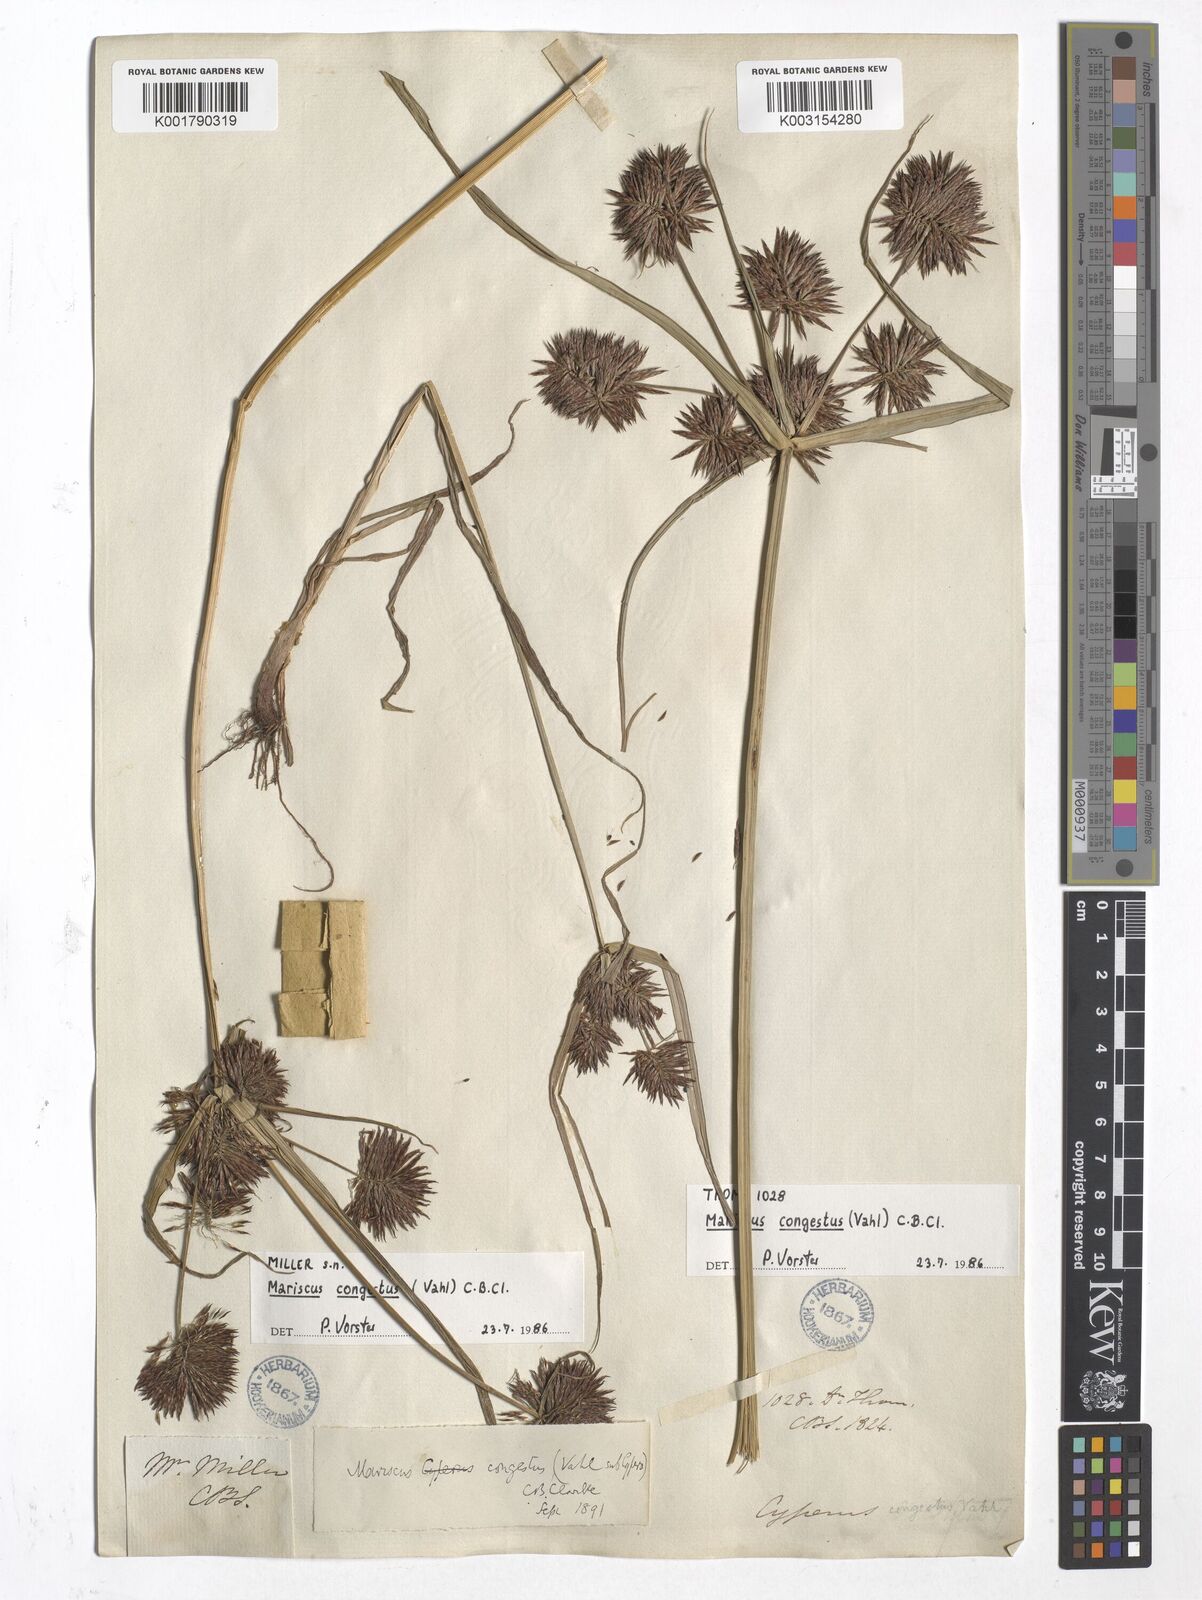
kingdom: Plantae
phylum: Tracheophyta
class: Liliopsida
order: Poales
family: Cyperaceae
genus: Cyperus
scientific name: Cyperus congestus
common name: Dense flat sedge
